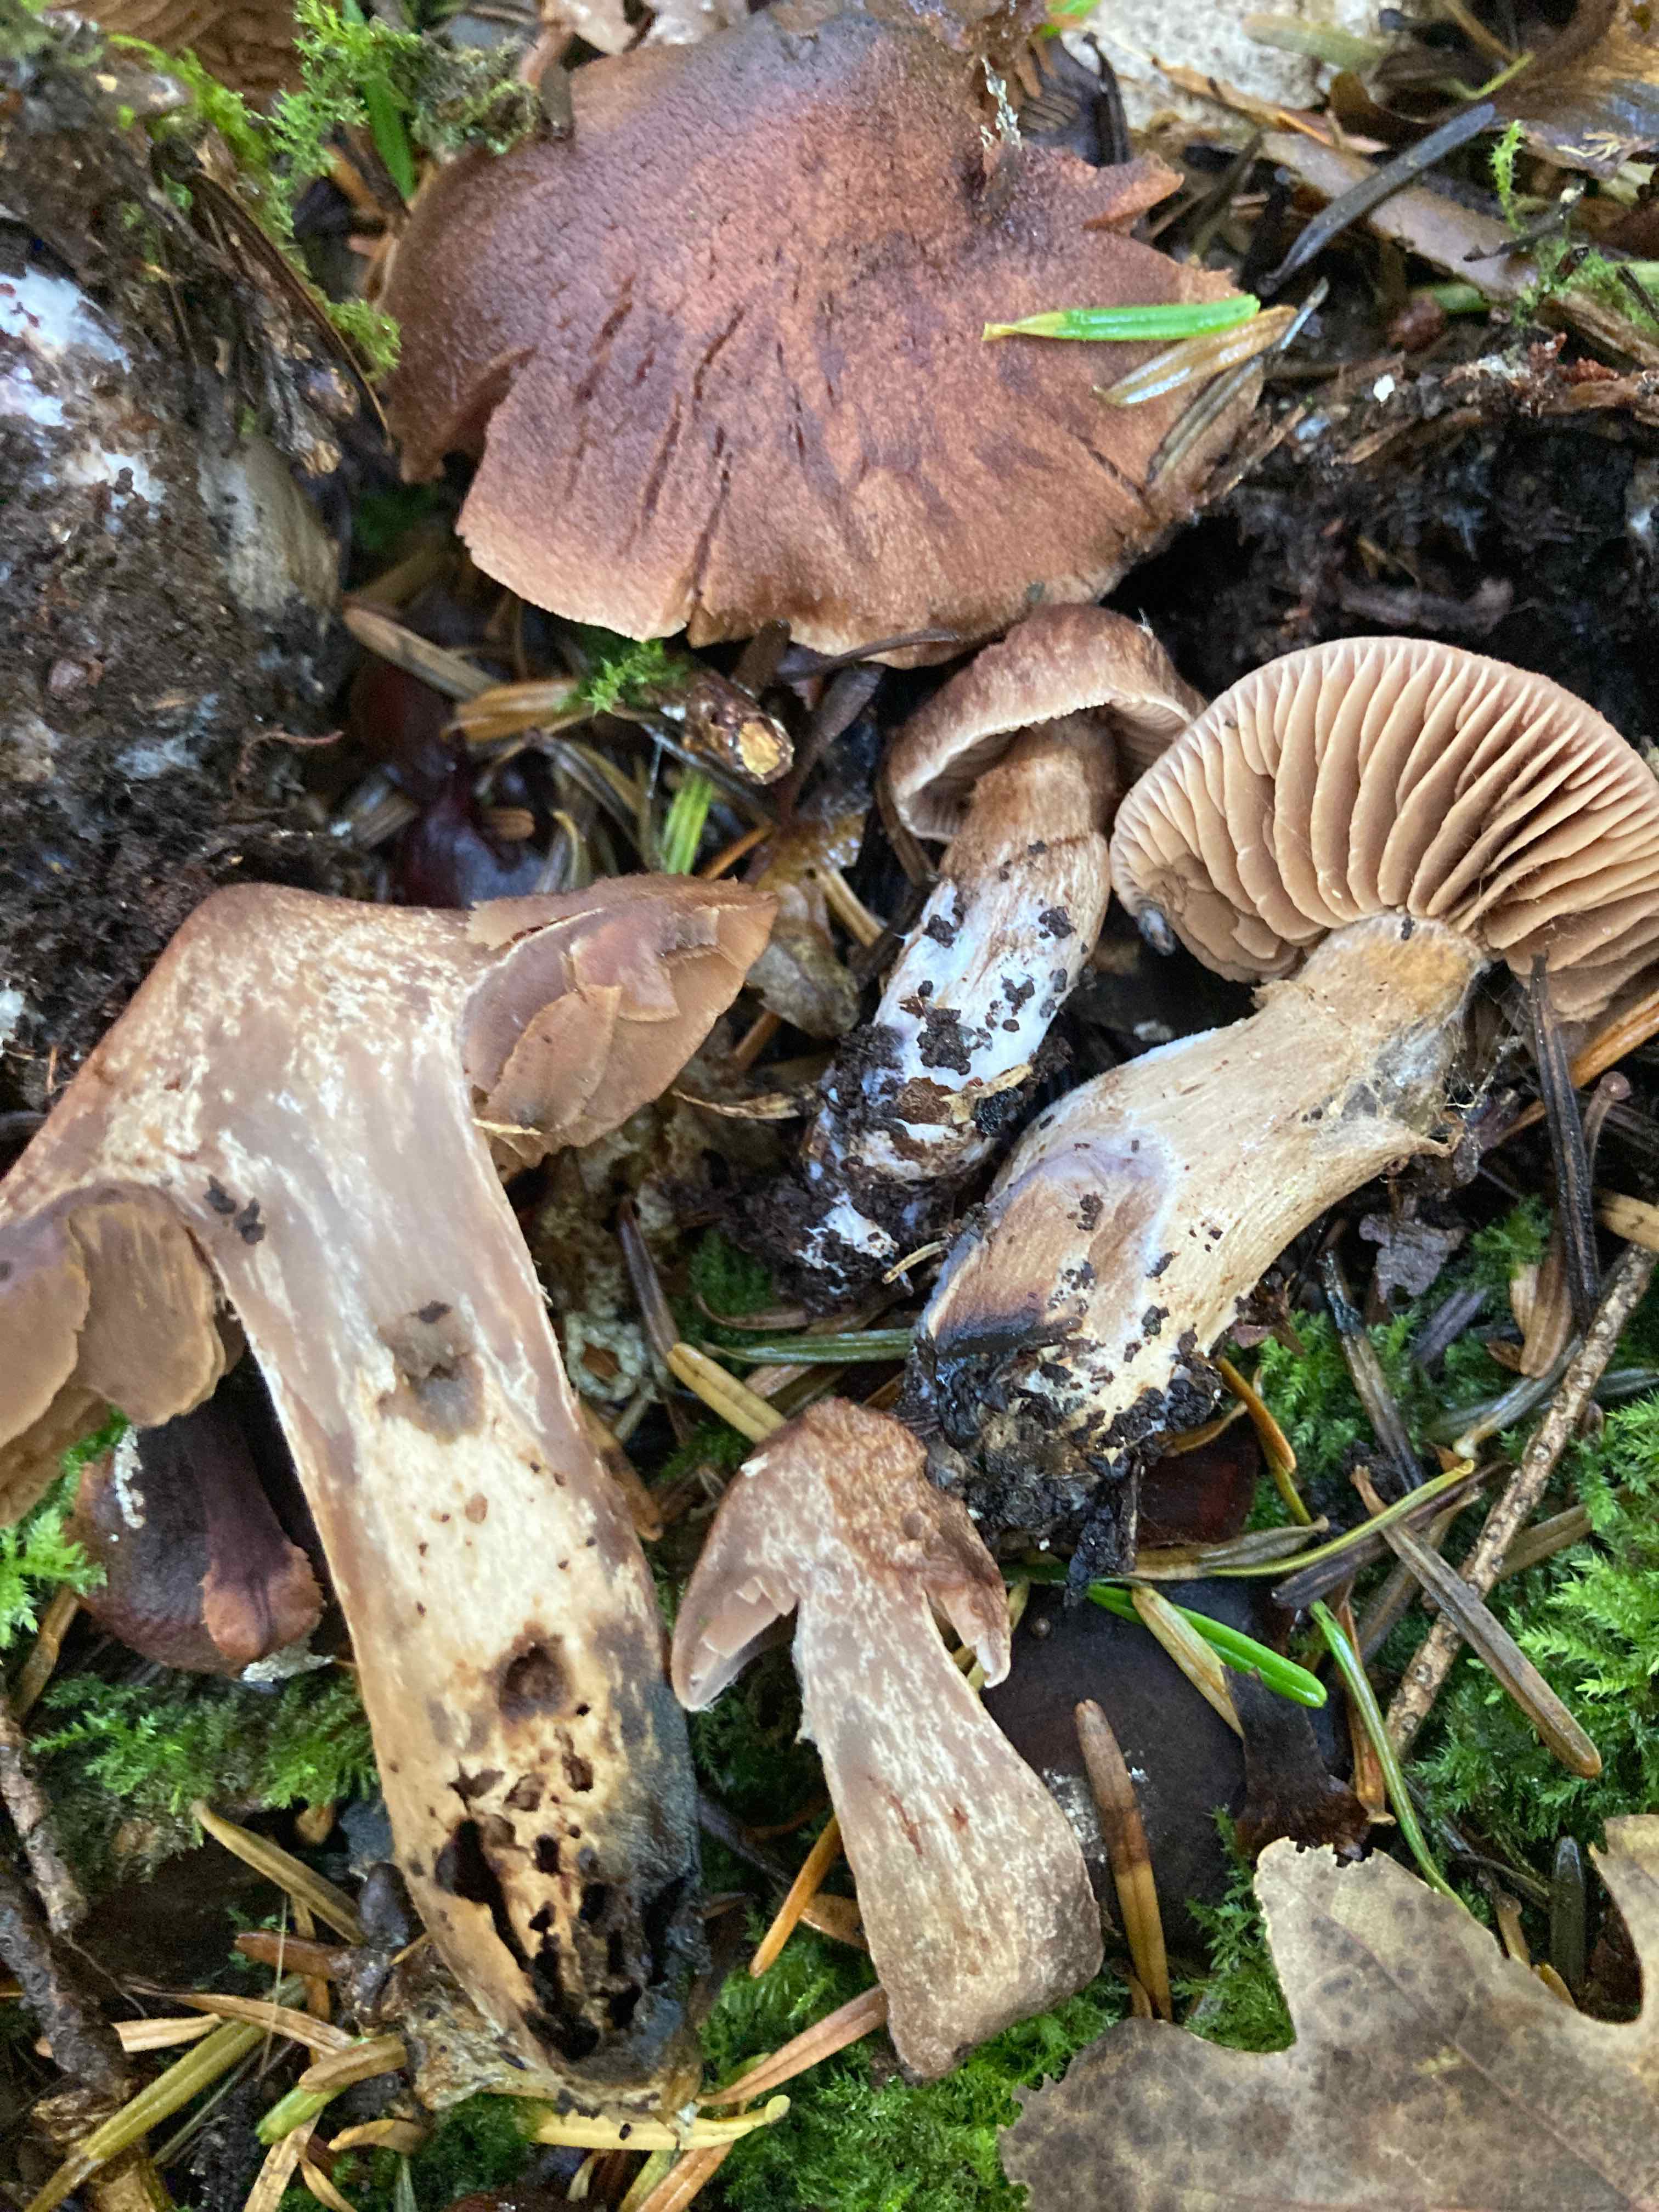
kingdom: Fungi
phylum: Basidiomycota
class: Agaricomycetes
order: Agaricales
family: Cortinariaceae
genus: Cortinarius
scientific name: Cortinarius ectypus
